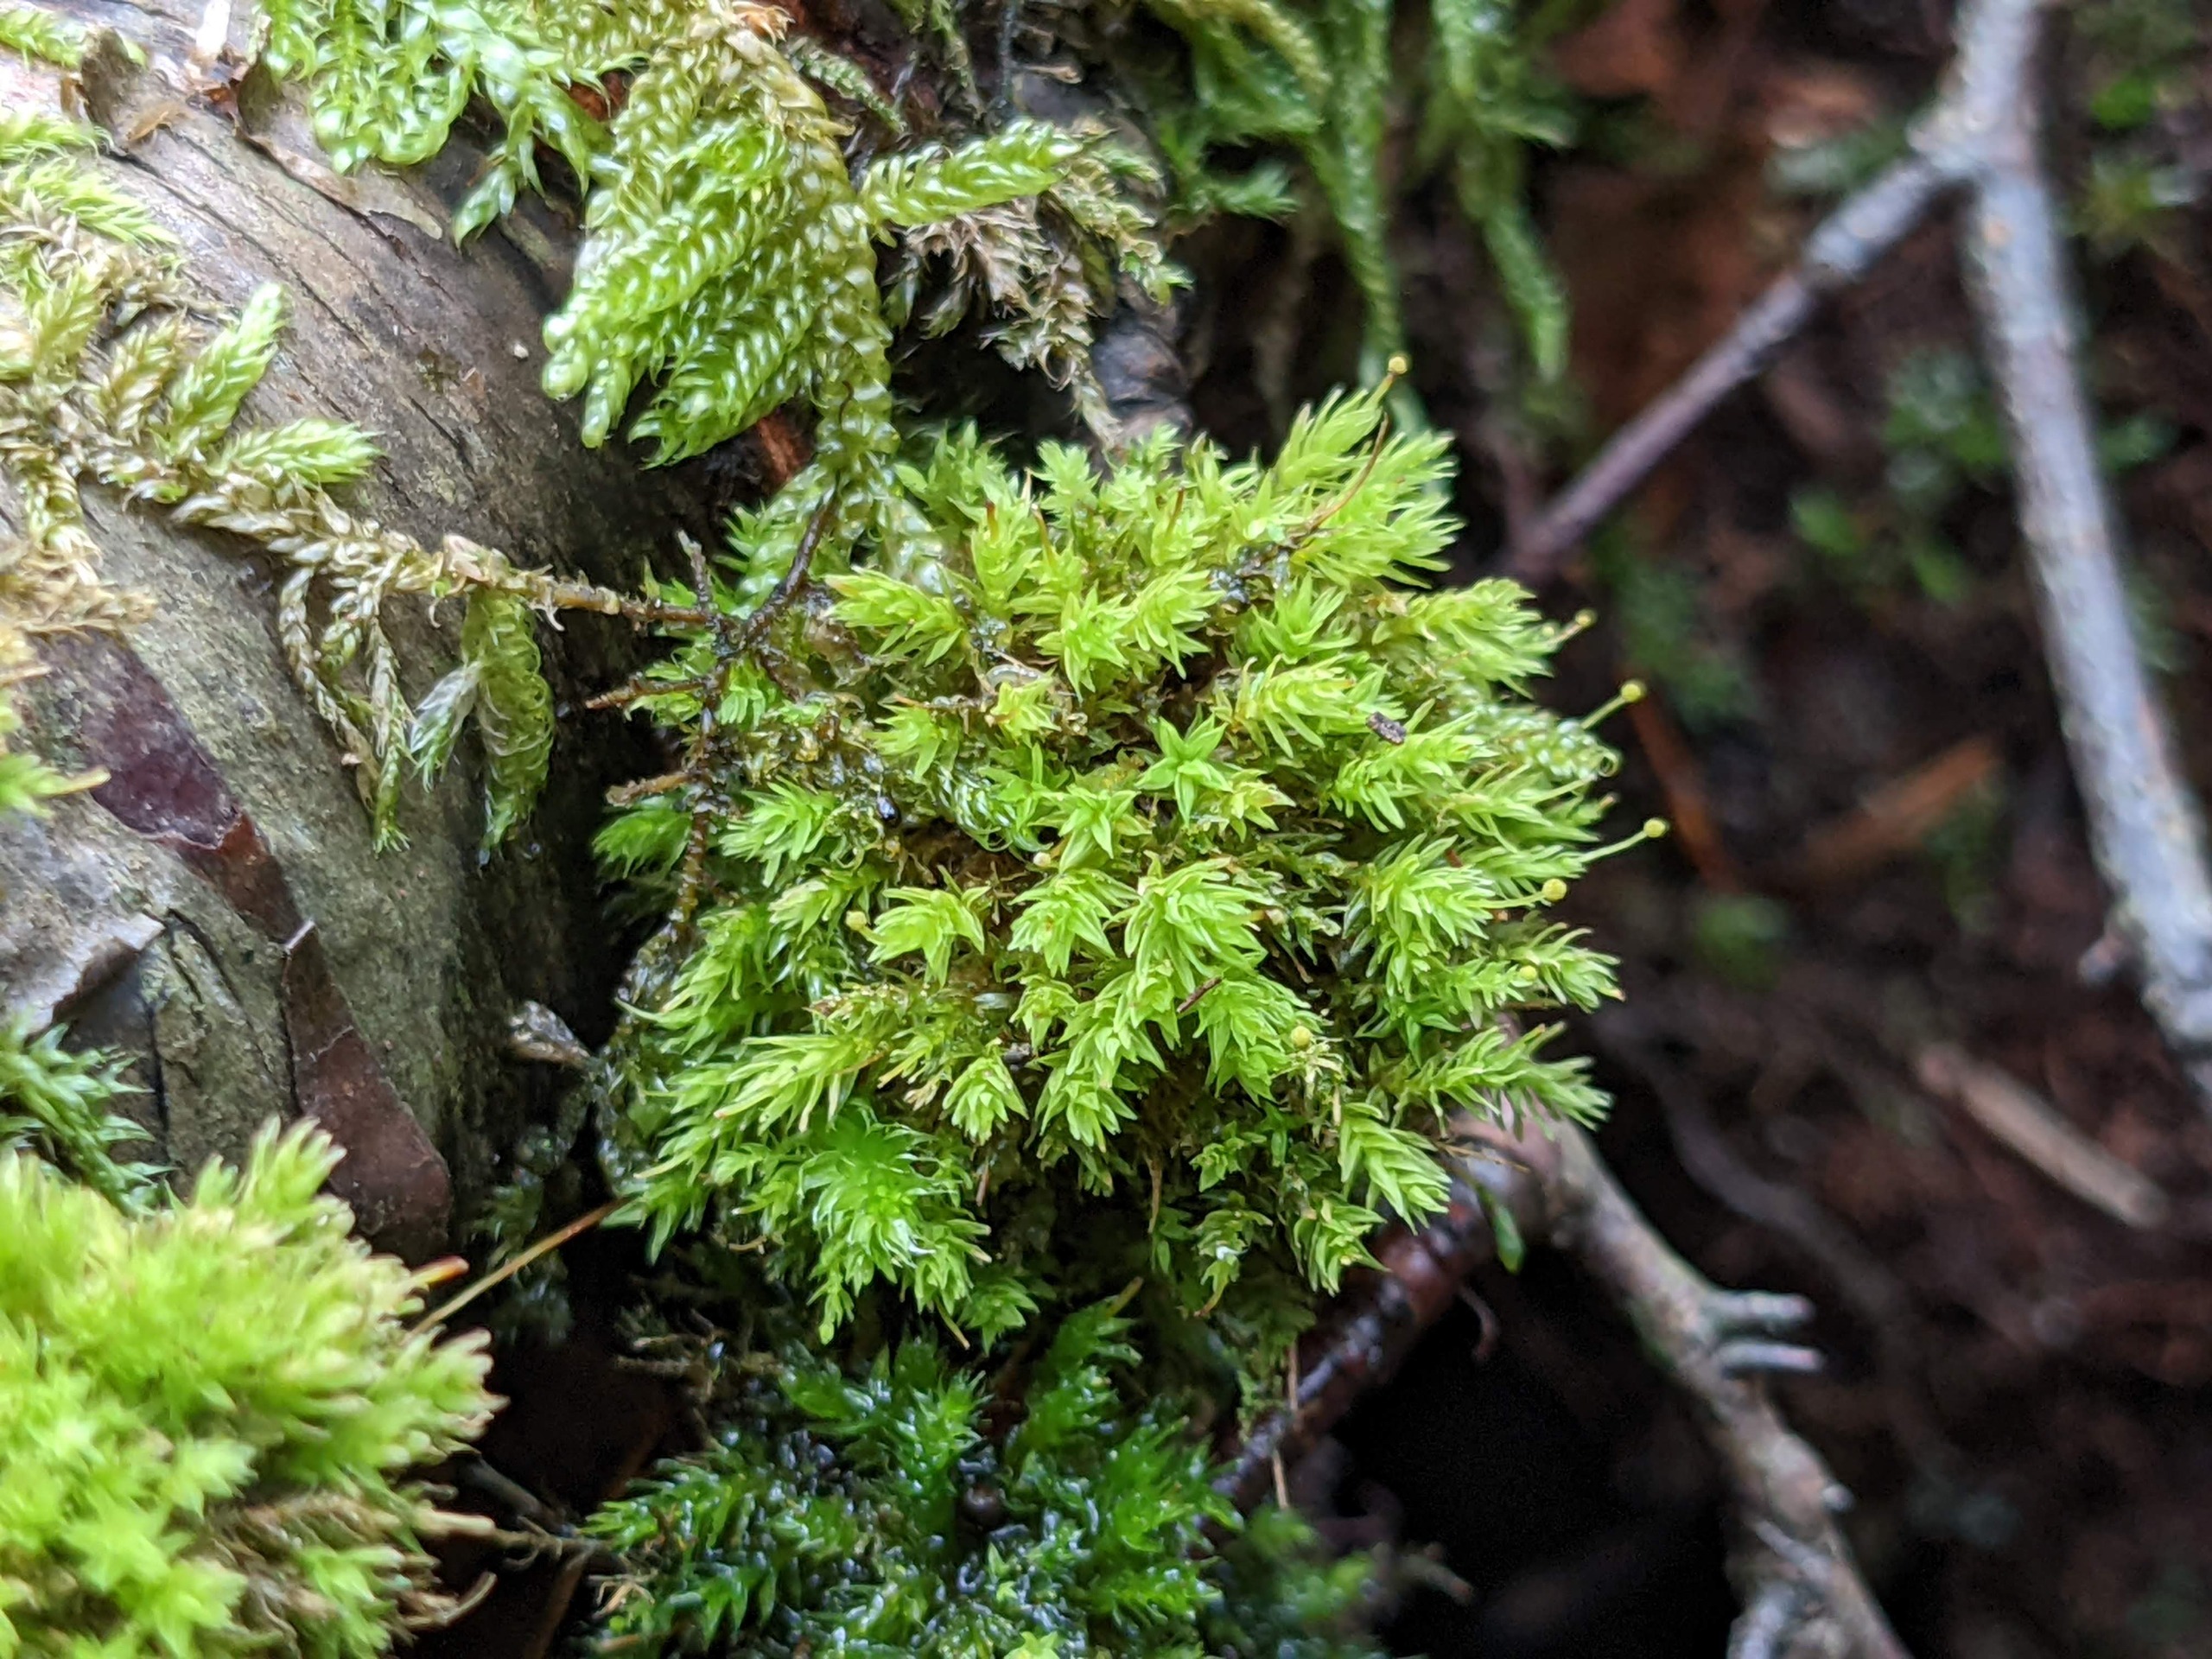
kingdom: Plantae
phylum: Bryophyta
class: Bryopsida
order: Aulacomniales
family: Aulacomniaceae
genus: Aulacomnium
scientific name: Aulacomnium androgynum
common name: Kugle-filtmos
